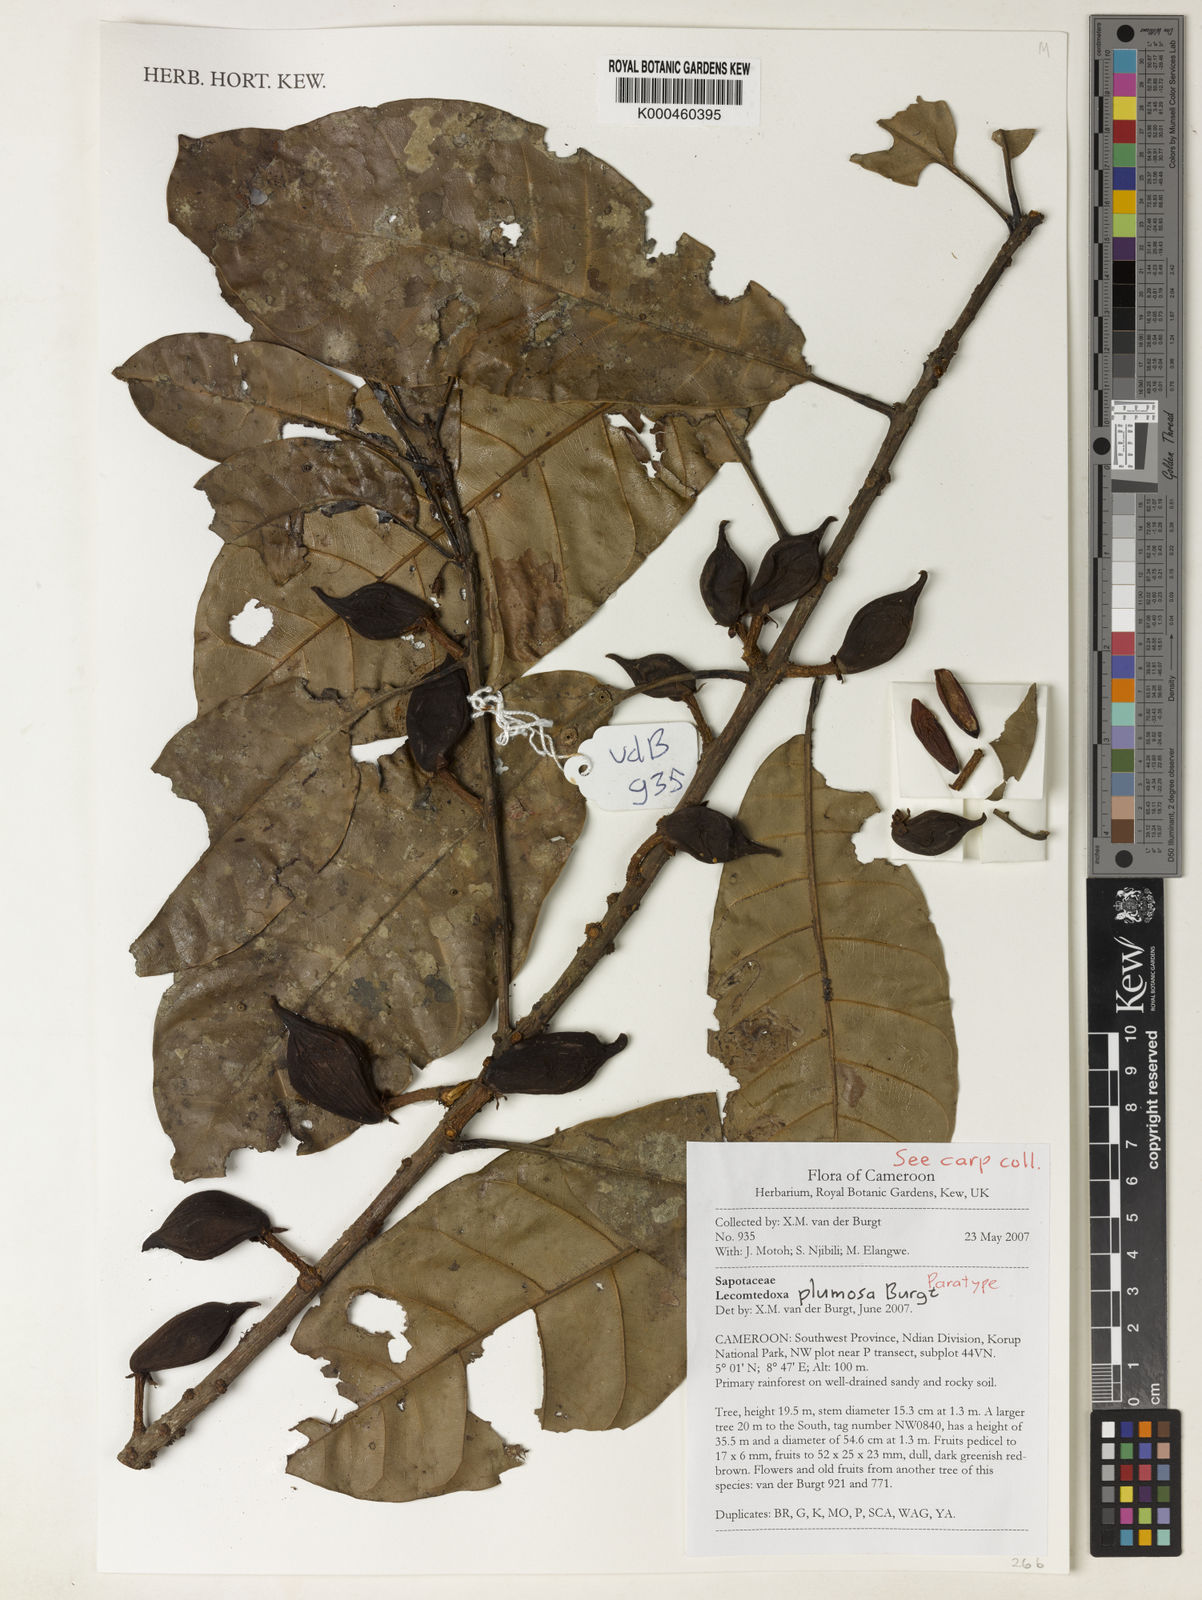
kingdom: Plantae
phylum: Tracheophyta
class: Magnoliopsida
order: Ericales
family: Sapotaceae
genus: Lecomtedoxa
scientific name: Lecomtedoxa plumosa
